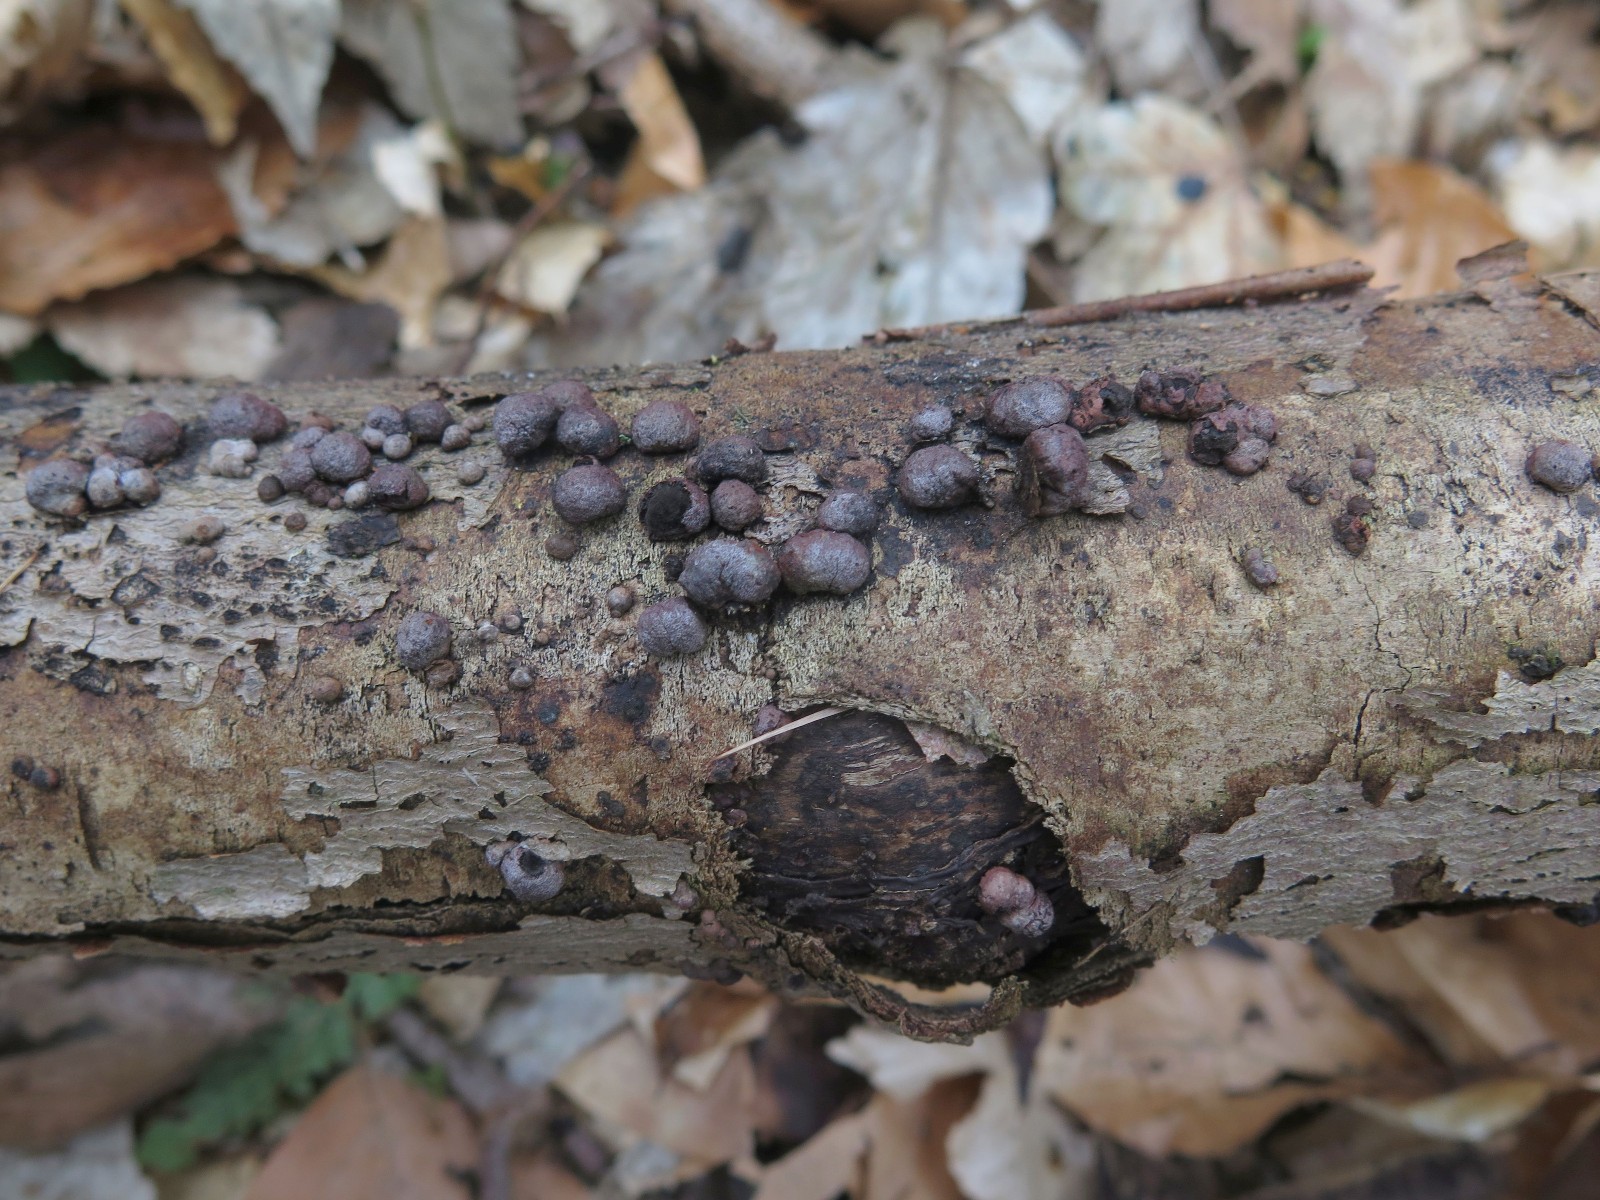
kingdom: Fungi
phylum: Ascomycota
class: Sordariomycetes
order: Xylariales
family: Hypoxylaceae
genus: Hypoxylon
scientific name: Hypoxylon
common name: kulbær
